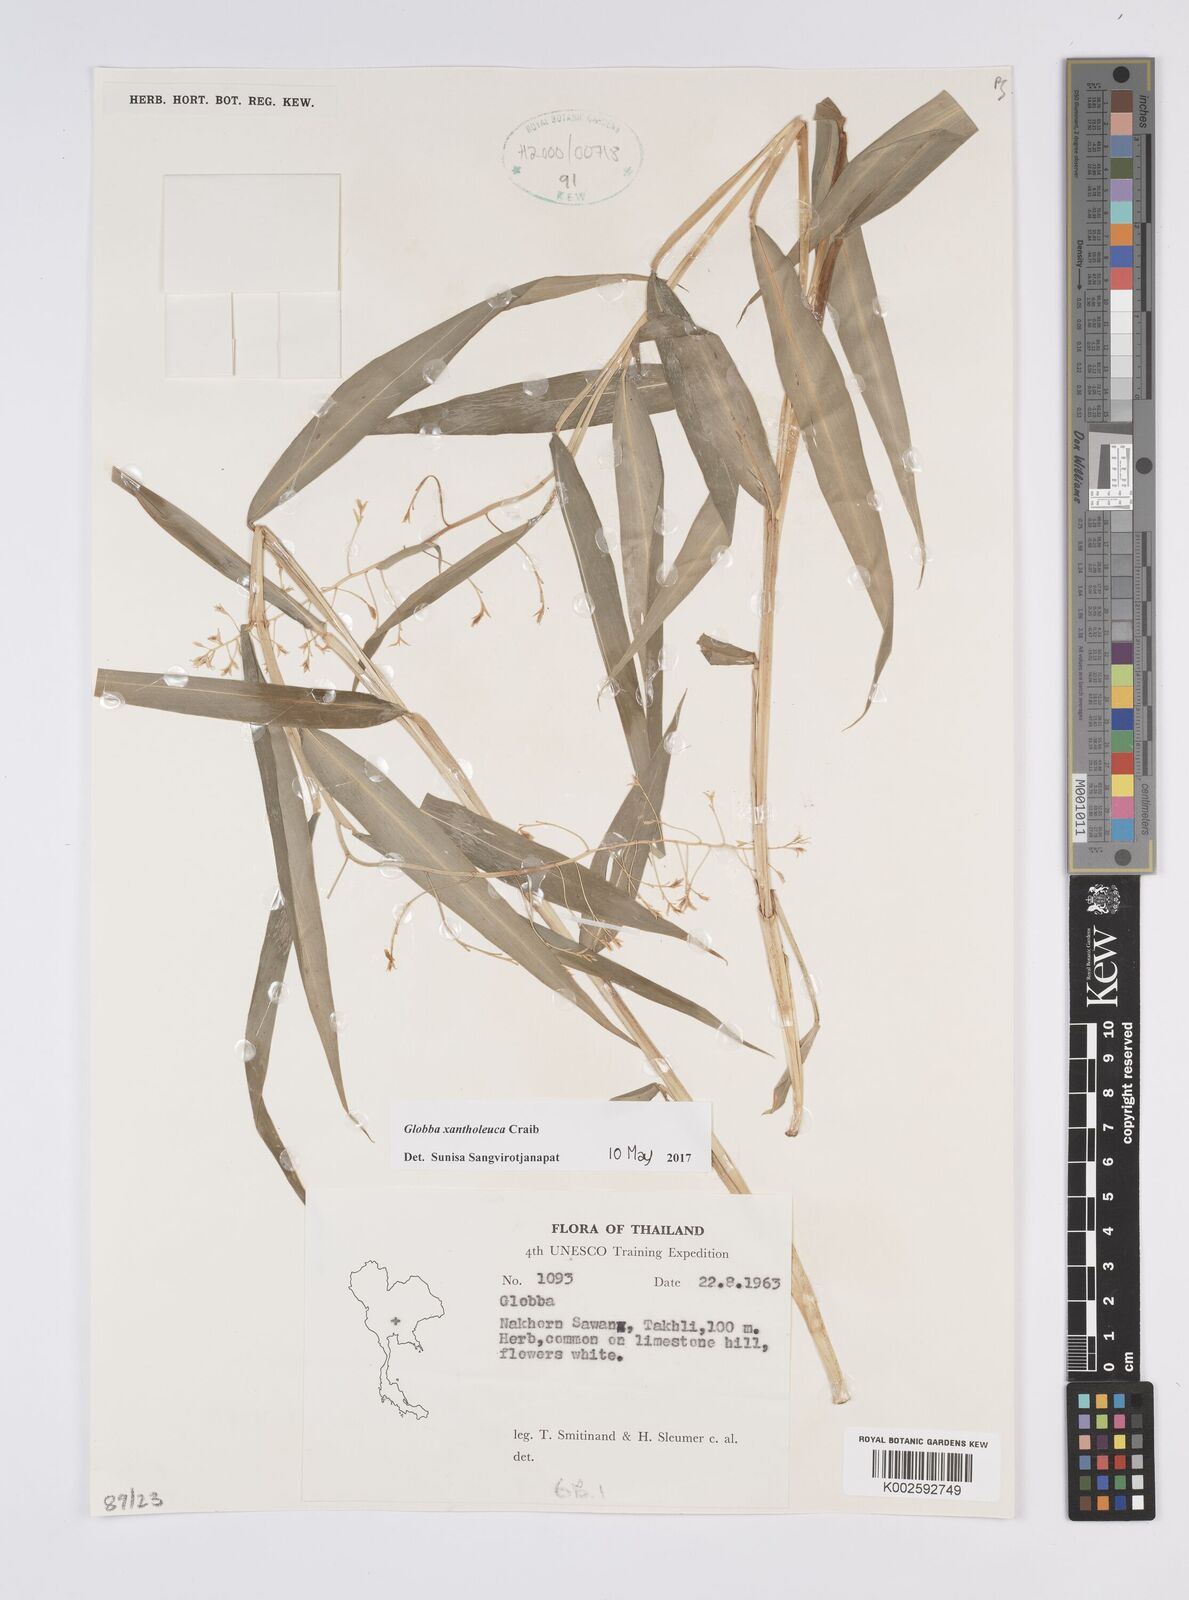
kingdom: Plantae
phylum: Tracheophyta
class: Liliopsida
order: Zingiberales
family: Zingiberaceae
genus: Globba
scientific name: Globba xantholeuca
